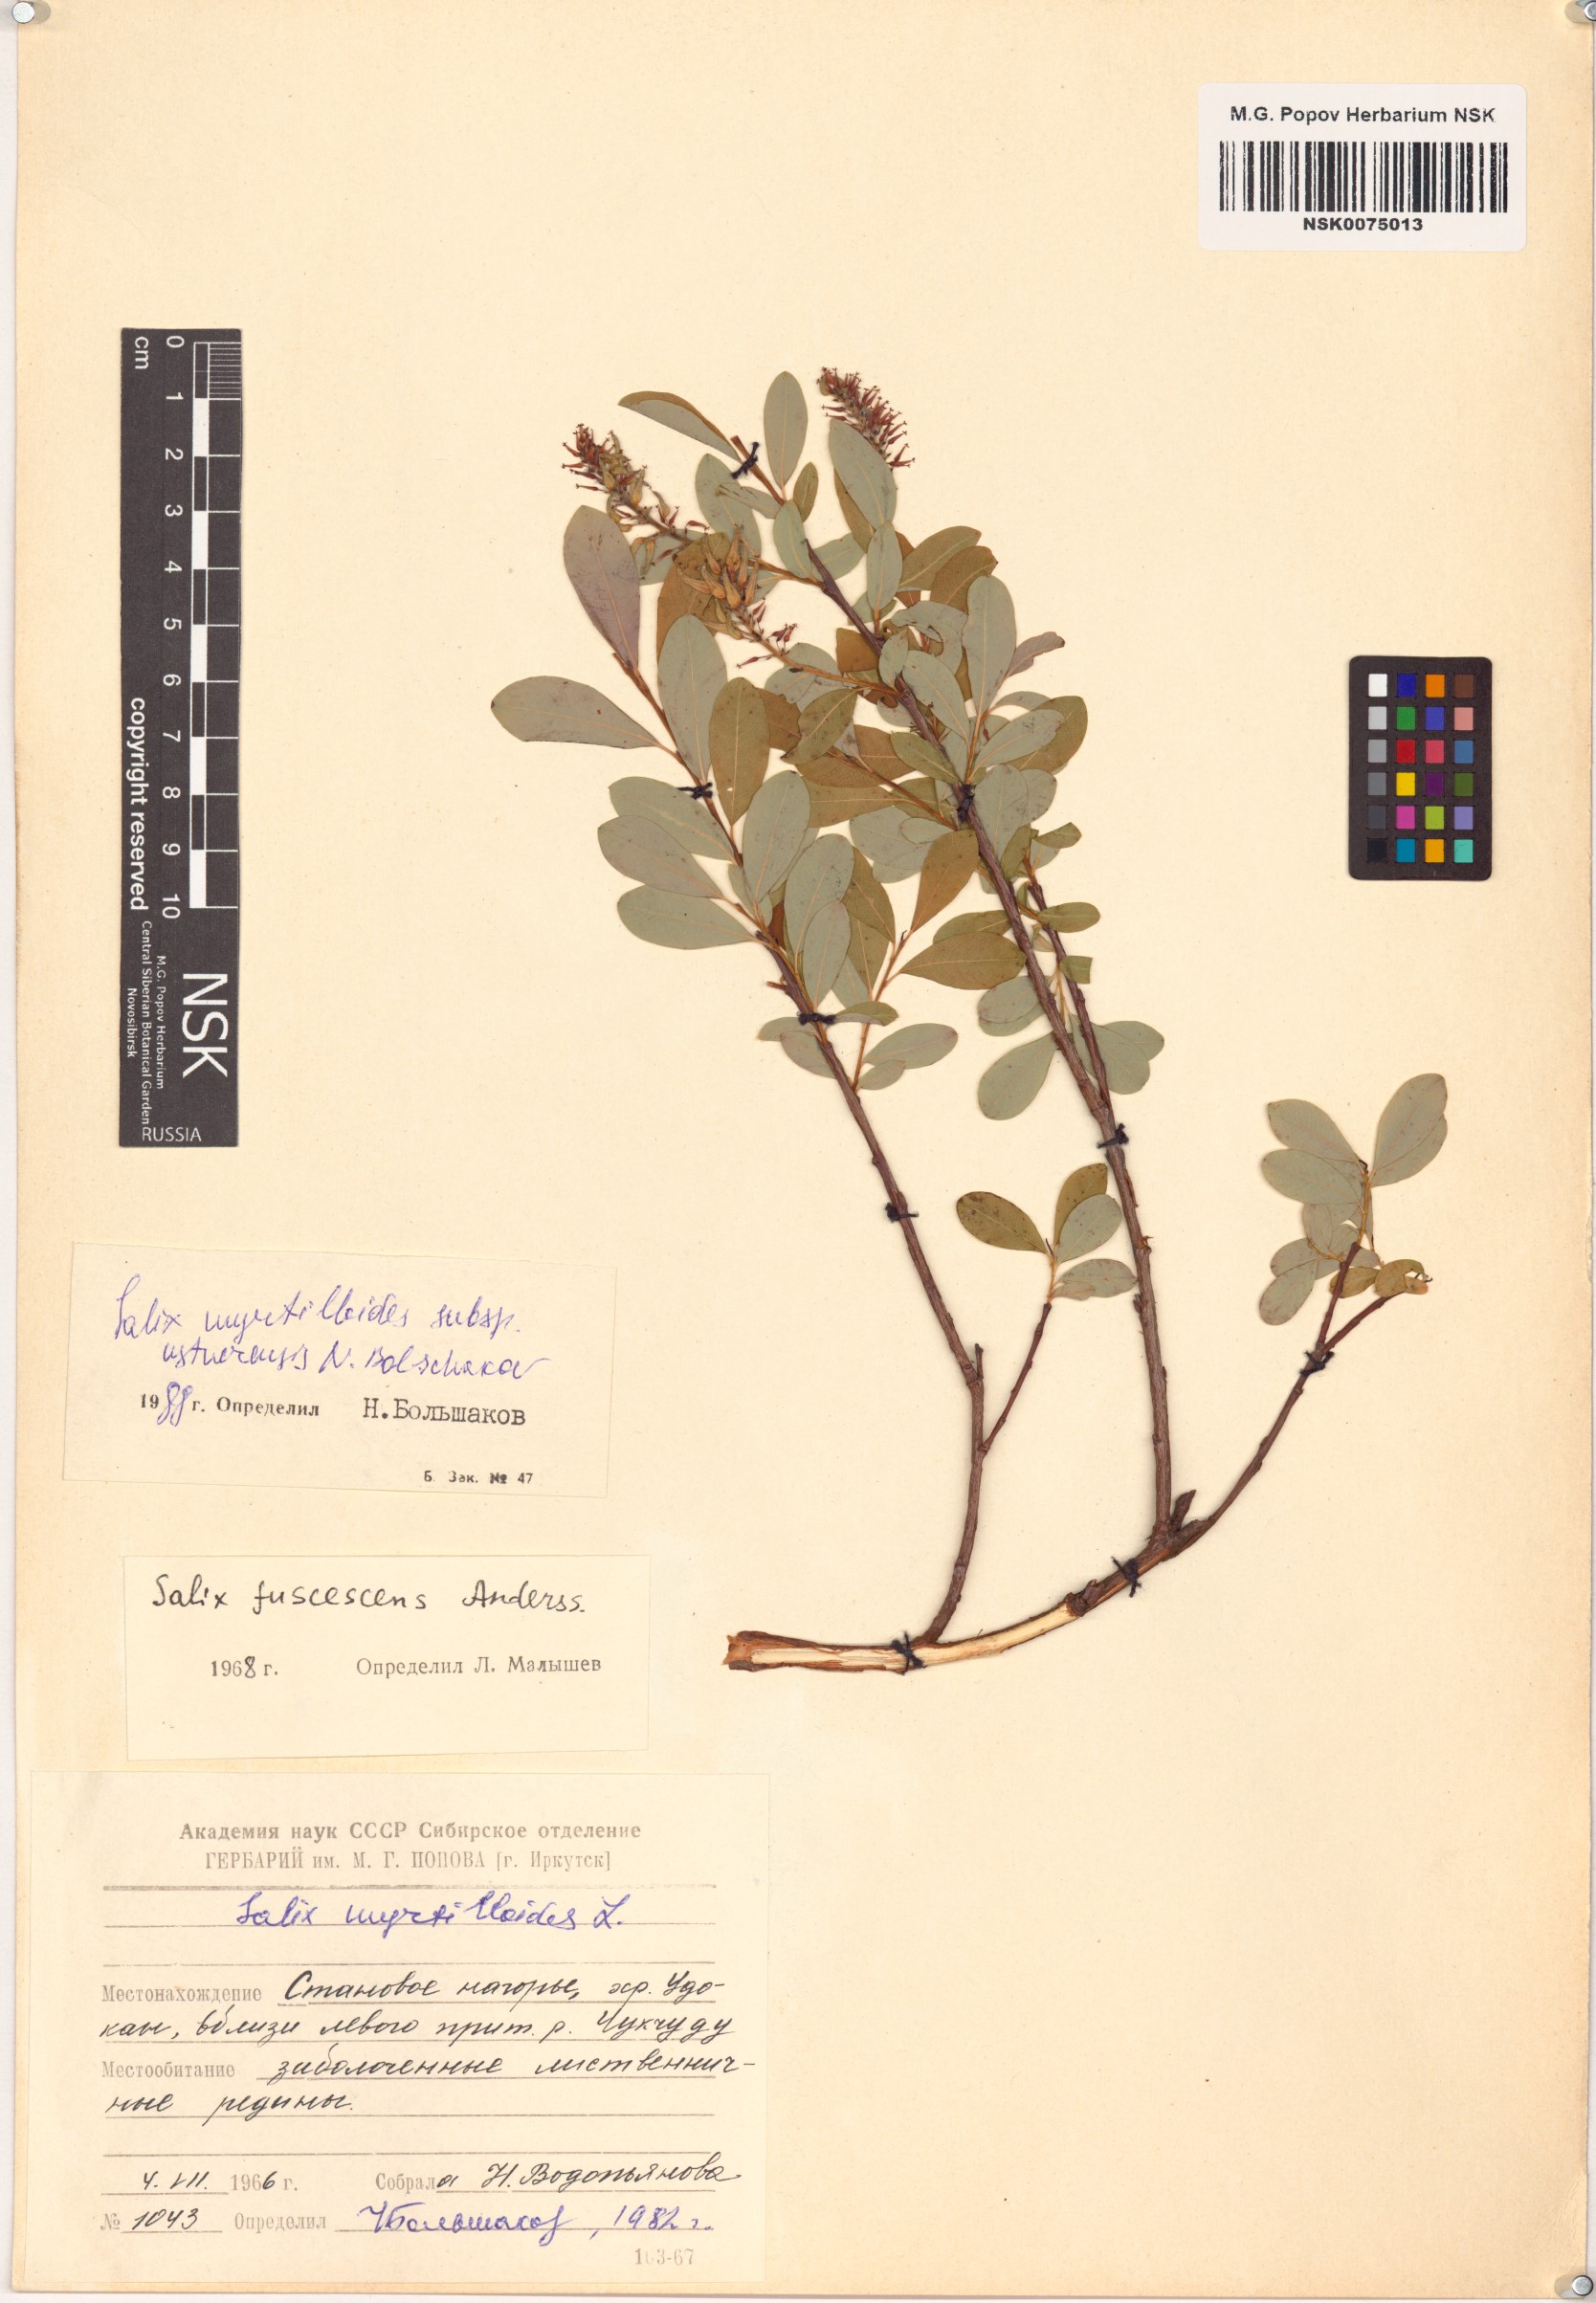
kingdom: Plantae
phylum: Tracheophyta
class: Magnoliopsida
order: Malpighiales
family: Salicaceae
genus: Salix
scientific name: Salix ustnerensis
